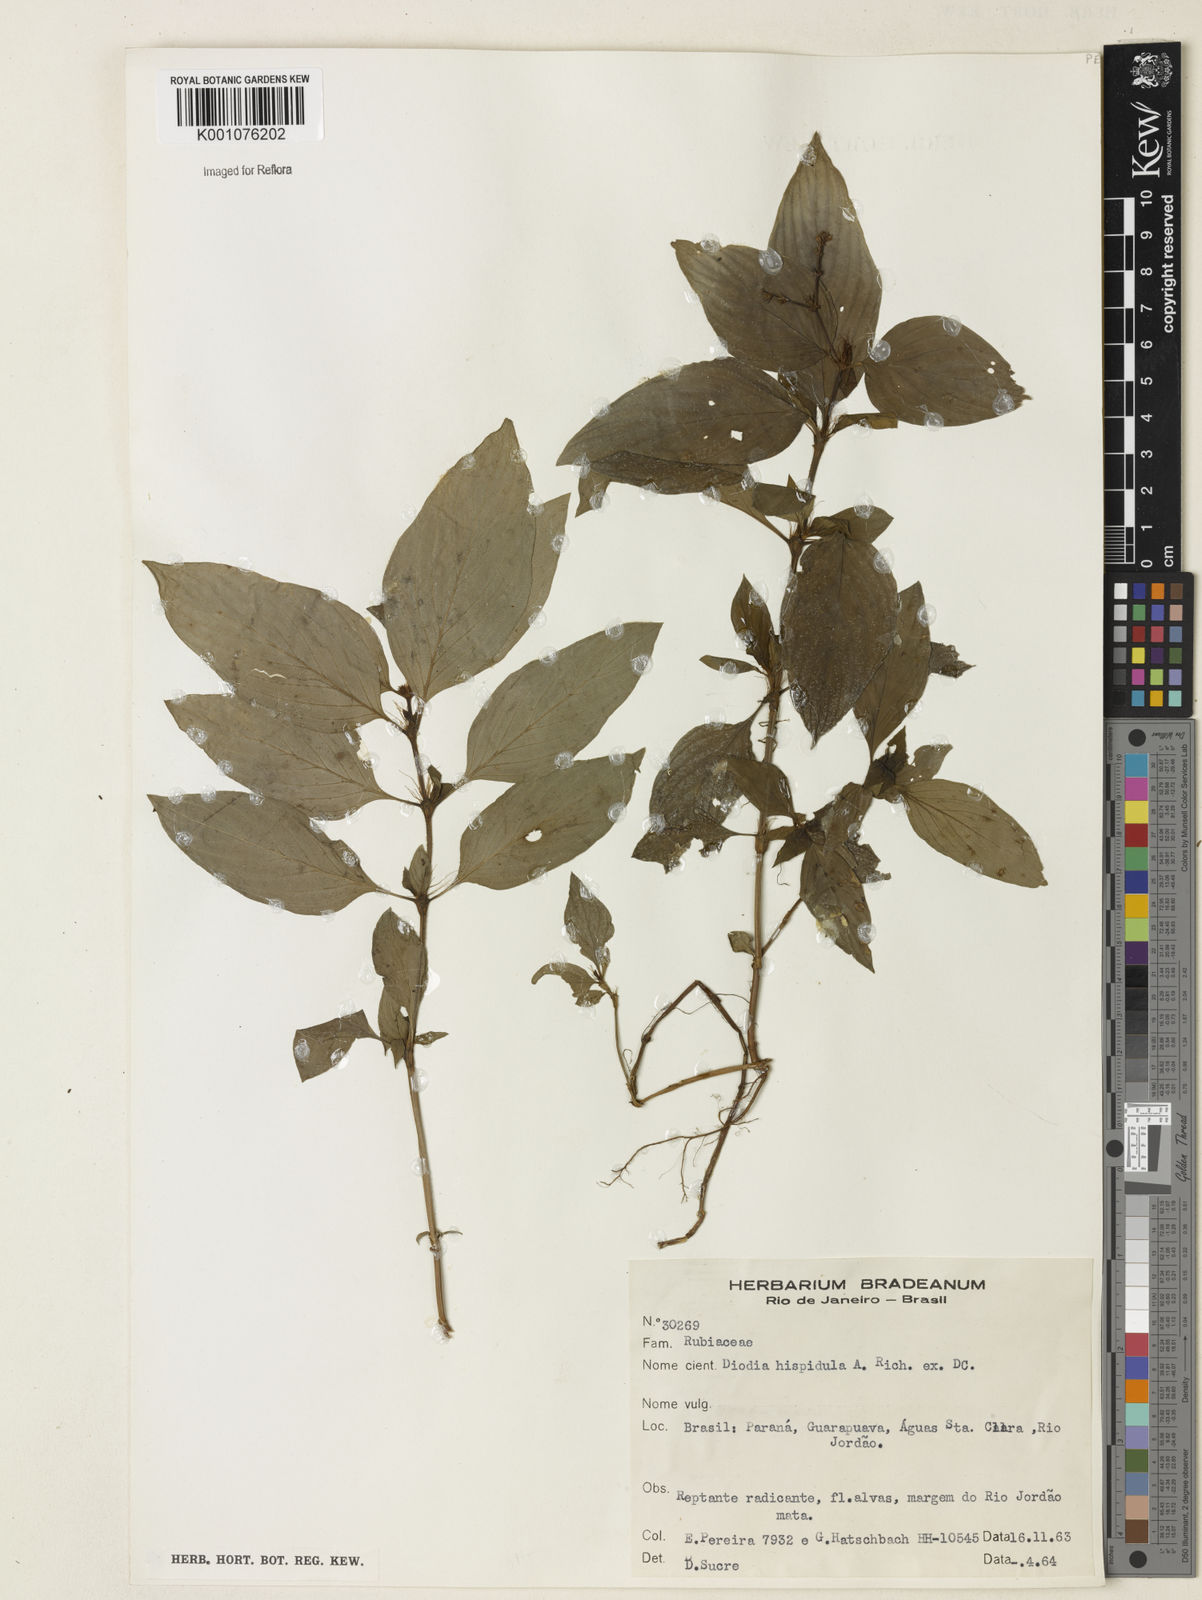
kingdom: Plantae
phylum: Tracheophyta
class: Magnoliopsida
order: Gentianales
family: Rubiaceae
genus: Spermacoce
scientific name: Spermacoce
